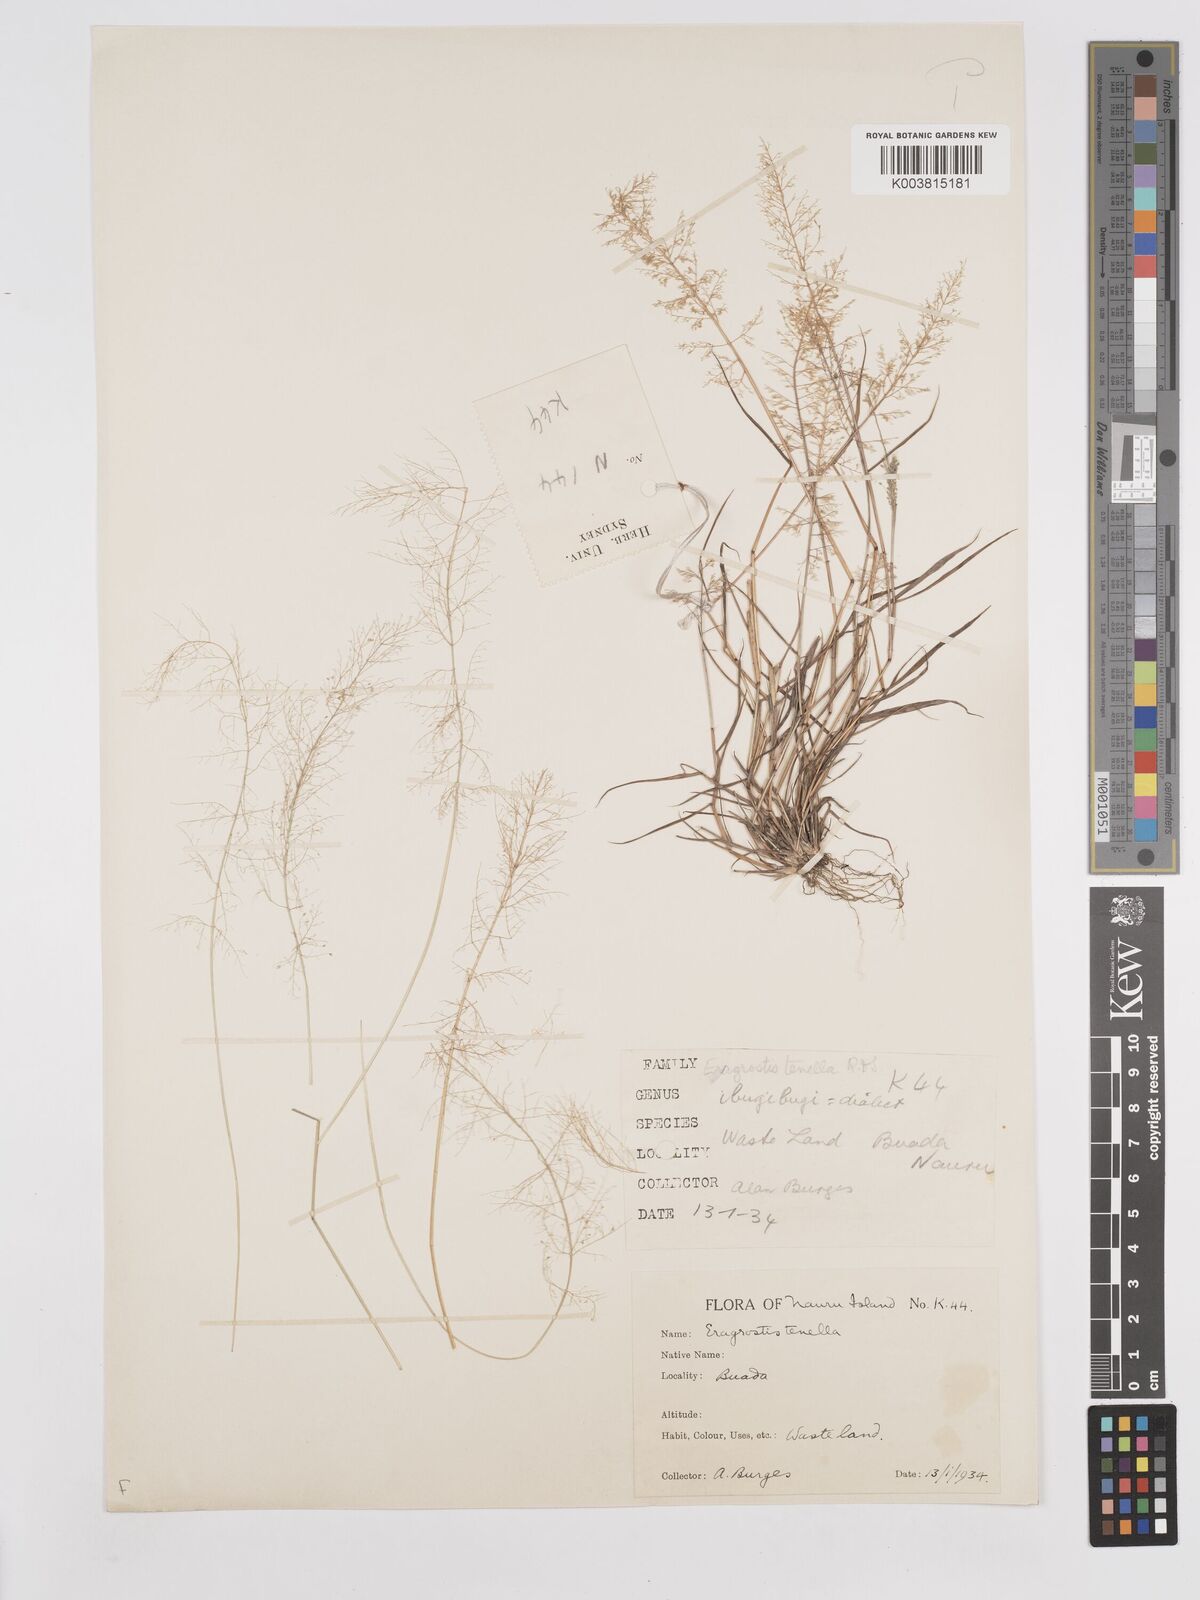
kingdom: Plantae
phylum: Tracheophyta
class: Liliopsida
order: Poales
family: Poaceae
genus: Eragrostis
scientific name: Eragrostis tenella
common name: Japanese lovegrass
